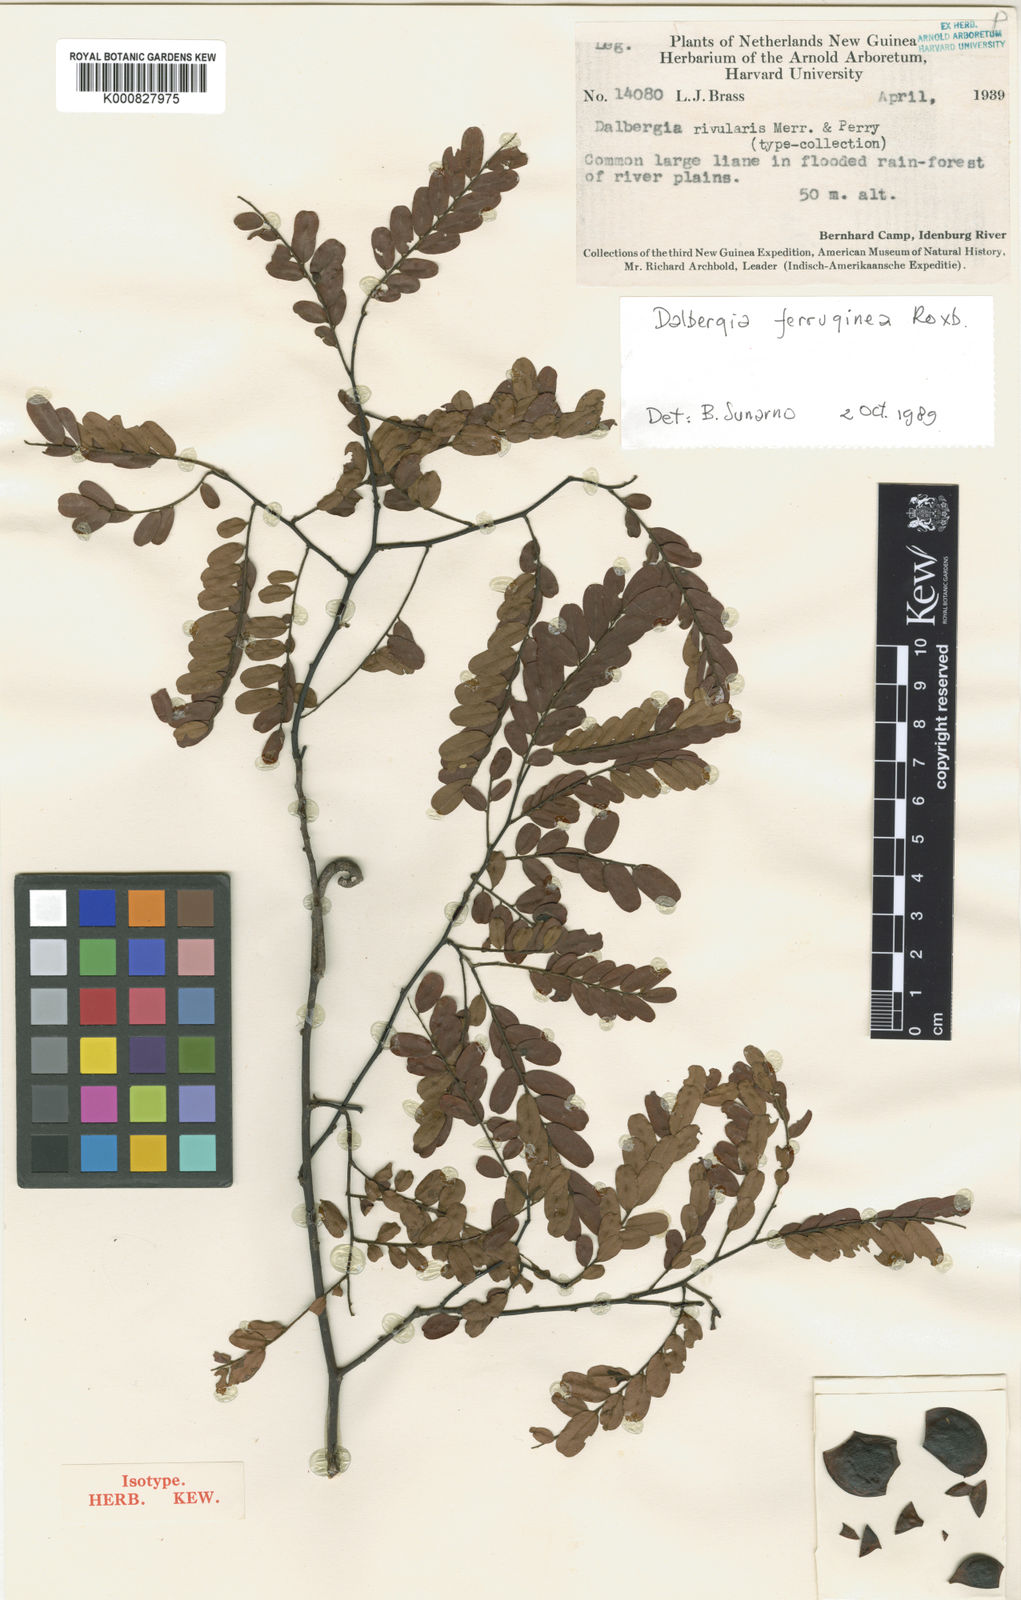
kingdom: Plantae
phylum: Tracheophyta
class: Magnoliopsida
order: Fabales
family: Fabaceae
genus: Dalbergia
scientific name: Dalbergia ferruginea
